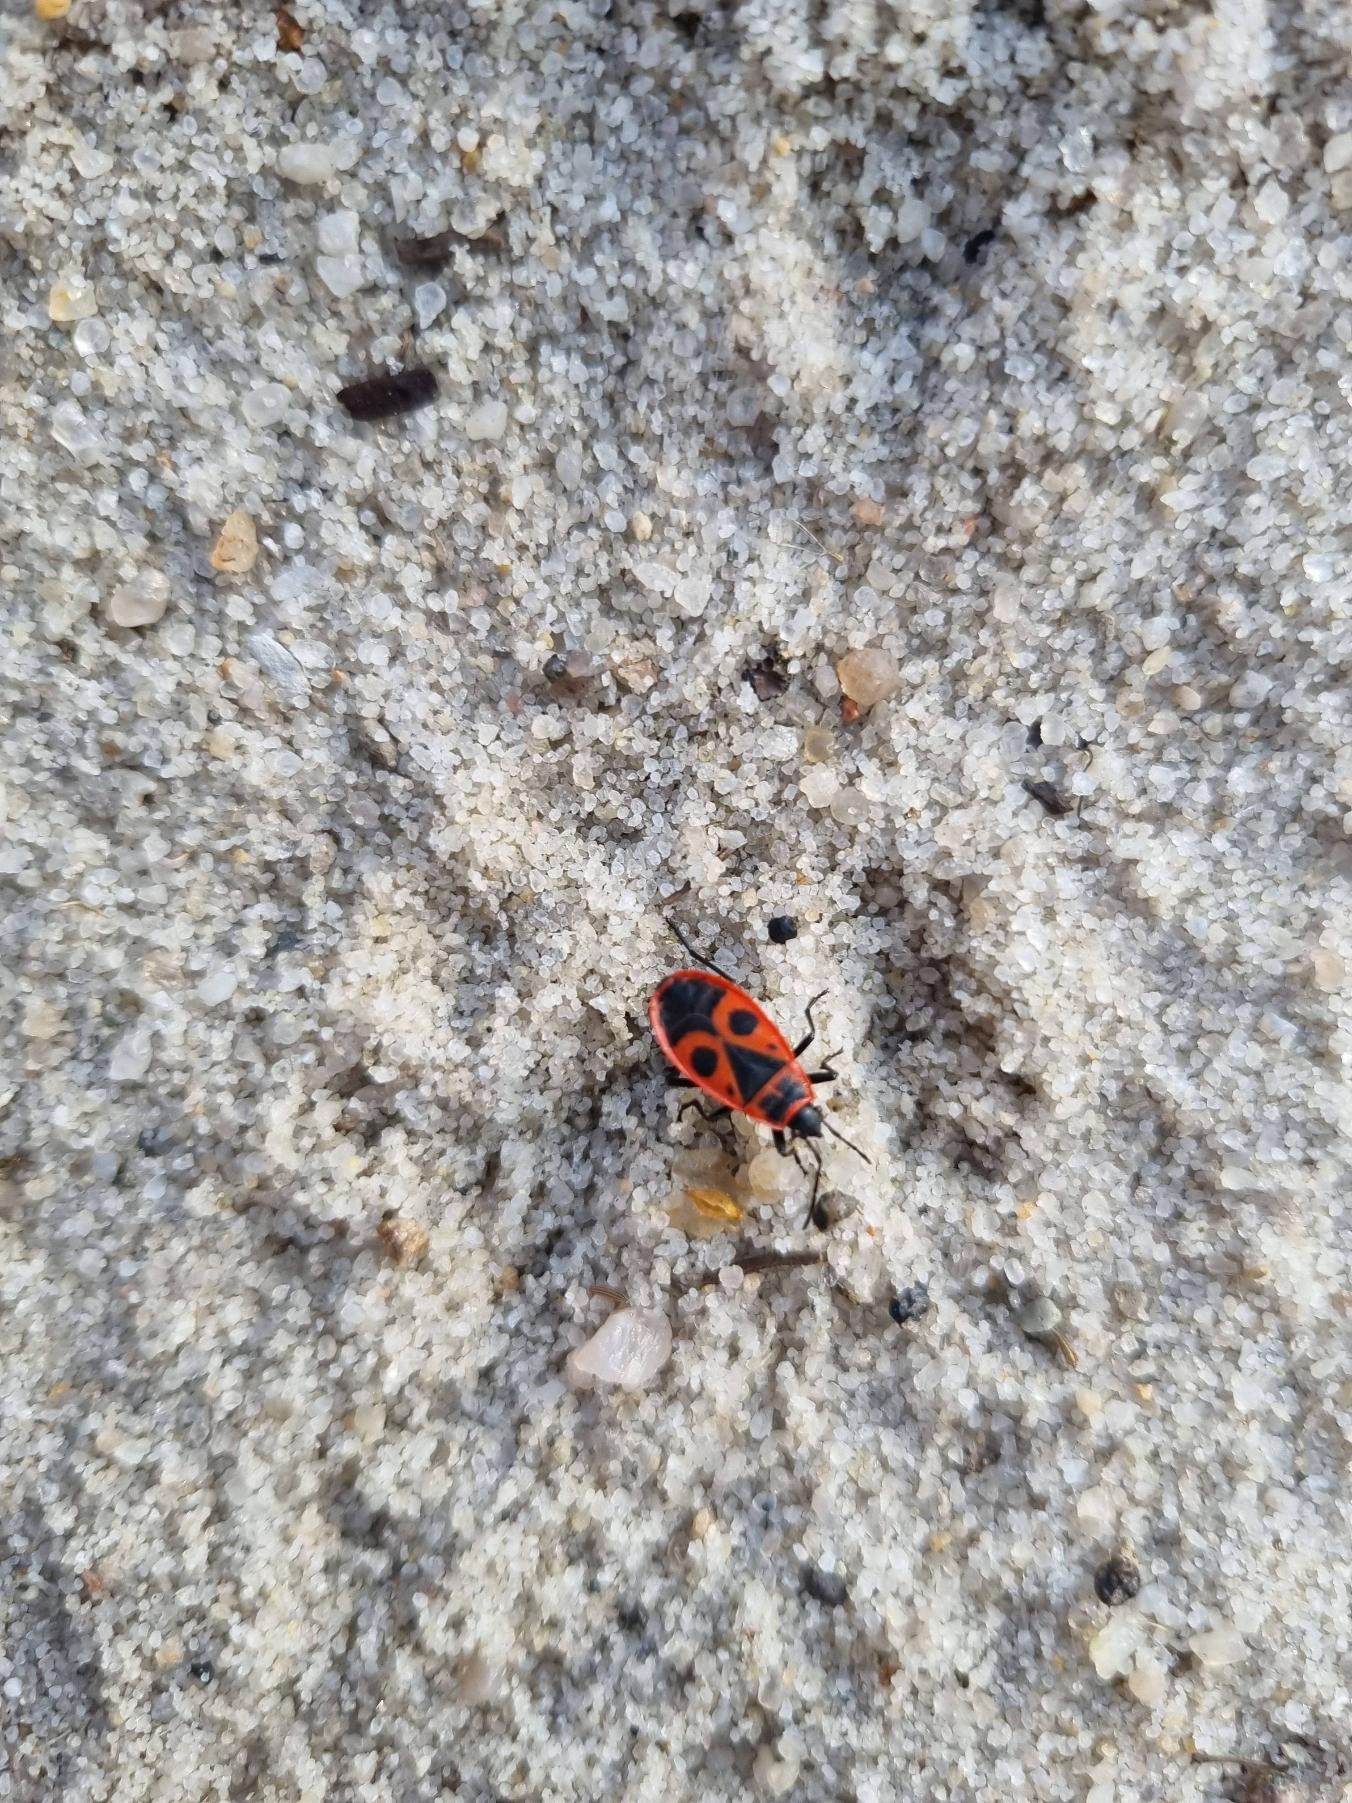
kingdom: Animalia
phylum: Arthropoda
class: Insecta
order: Hemiptera
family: Pyrrhocoridae
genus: Pyrrhocoris
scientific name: Pyrrhocoris apterus
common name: Ildtæge
